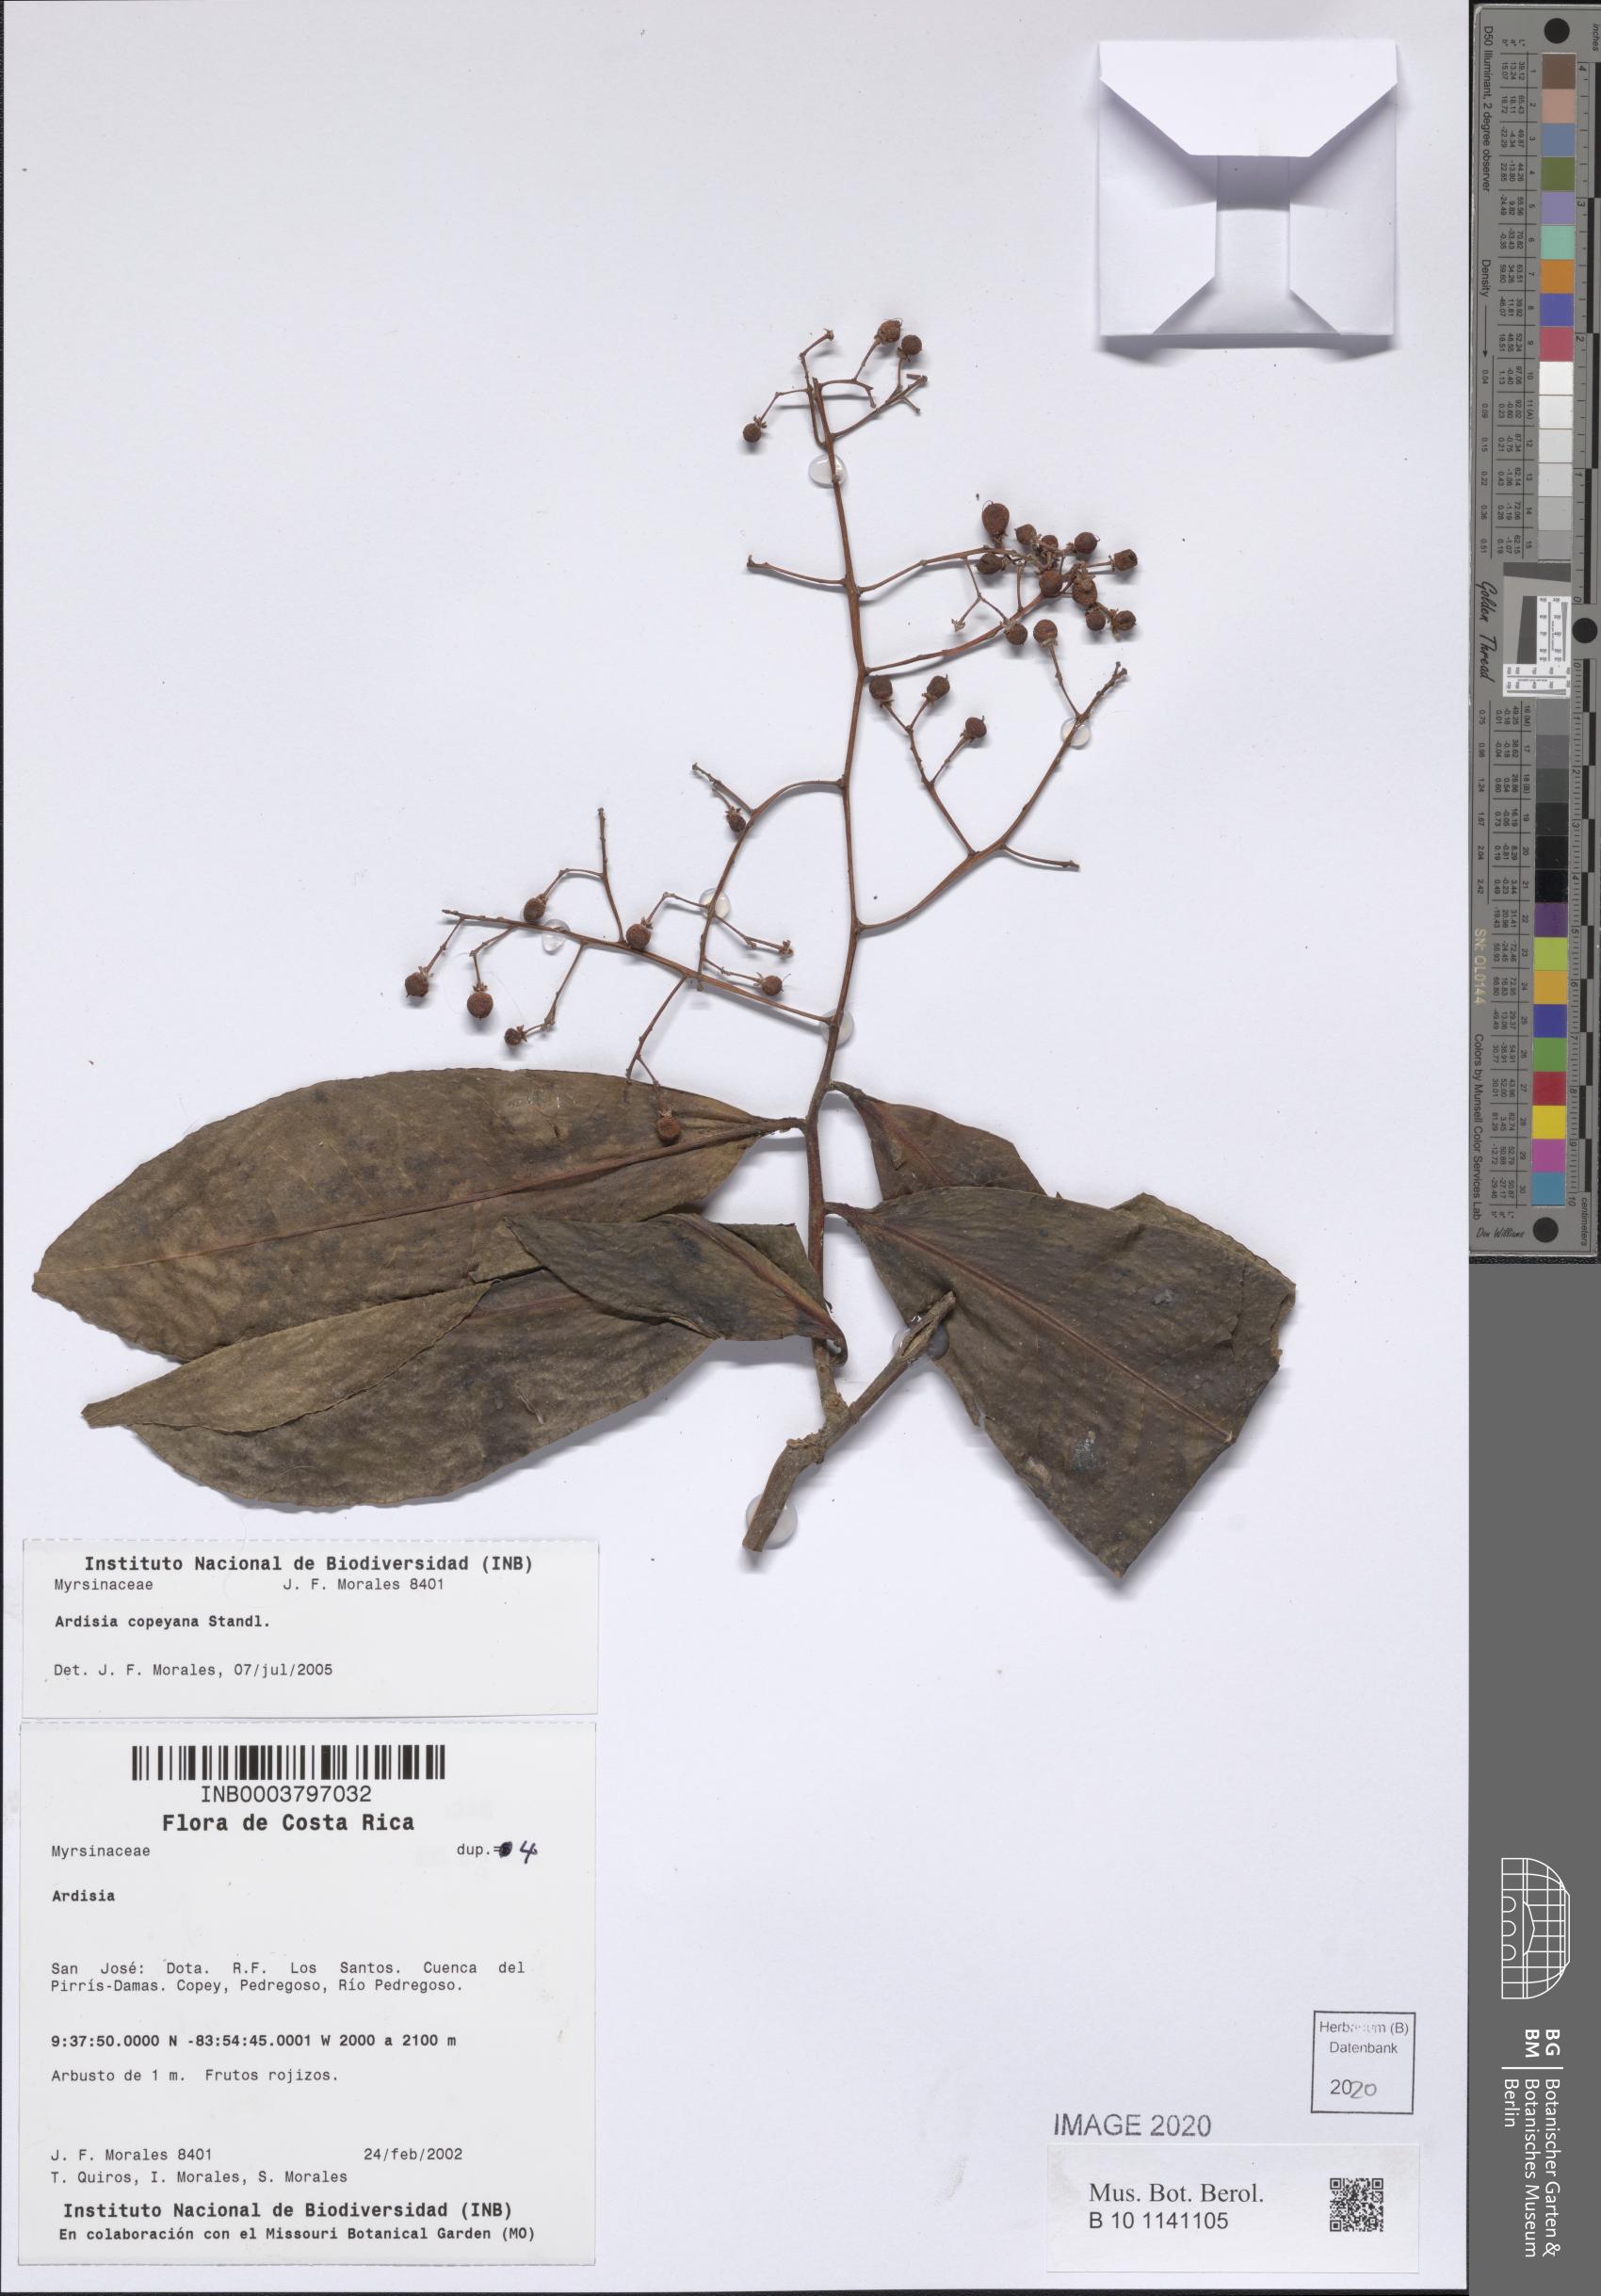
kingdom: Plantae
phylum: Tracheophyta
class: Magnoliopsida
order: Ericales
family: Primulaceae
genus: Ardisia
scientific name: Ardisia copeyana
